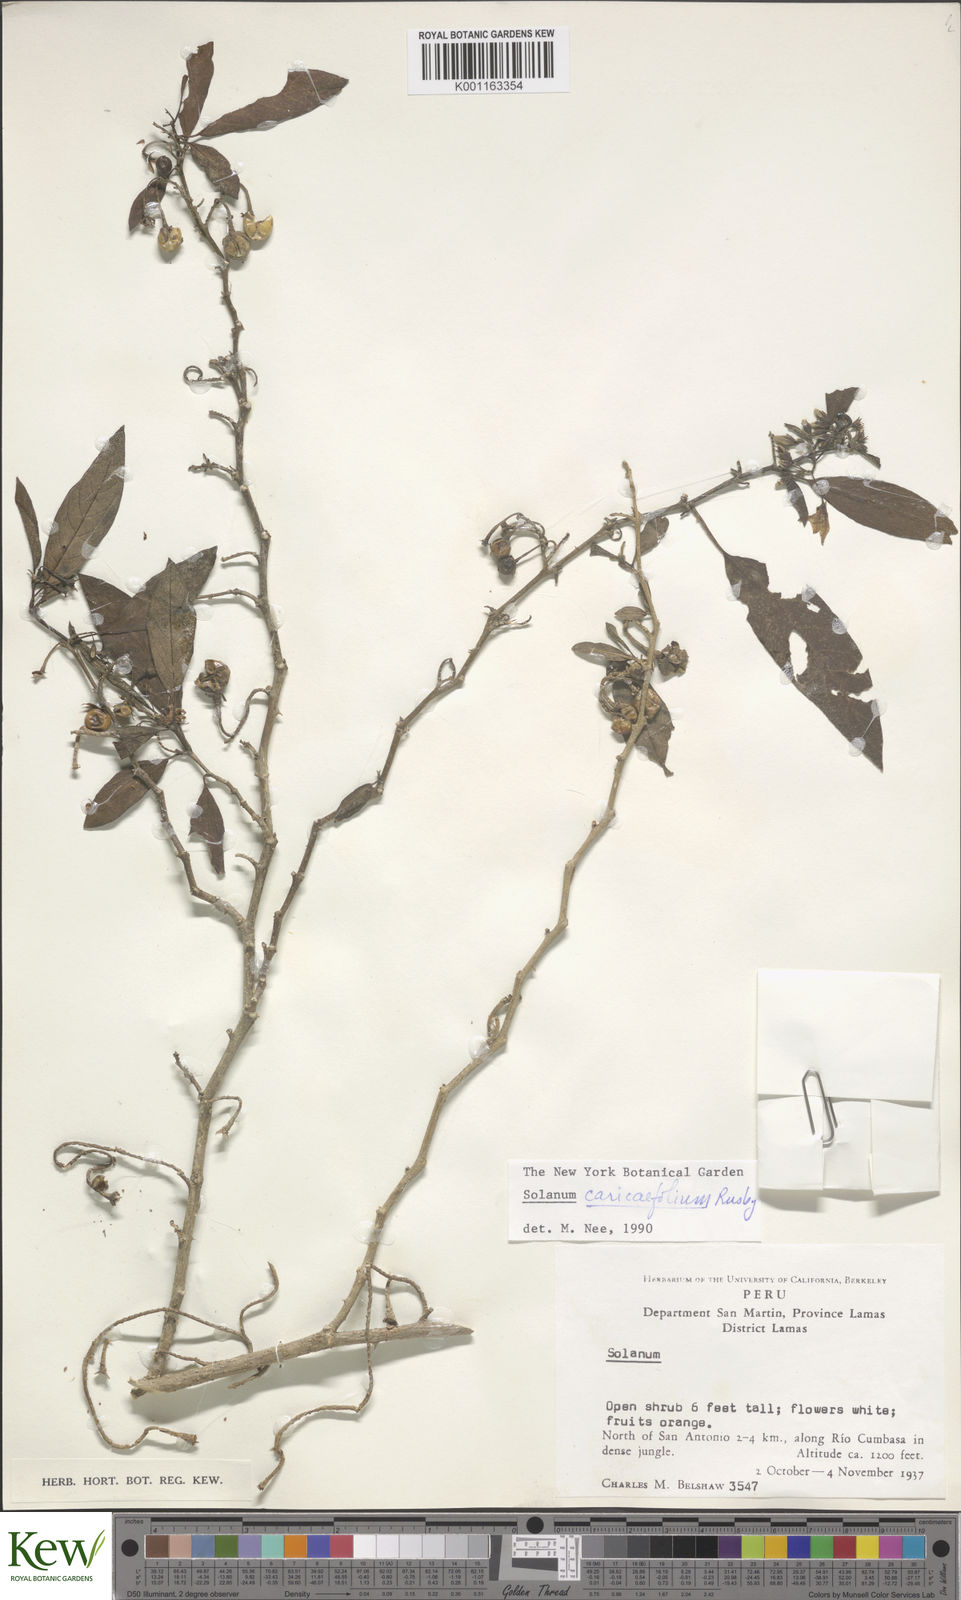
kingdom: Plantae
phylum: Tracheophyta
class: Magnoliopsida
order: Solanales
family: Solanaceae
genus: Solanum
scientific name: Solanum caricaefolium
